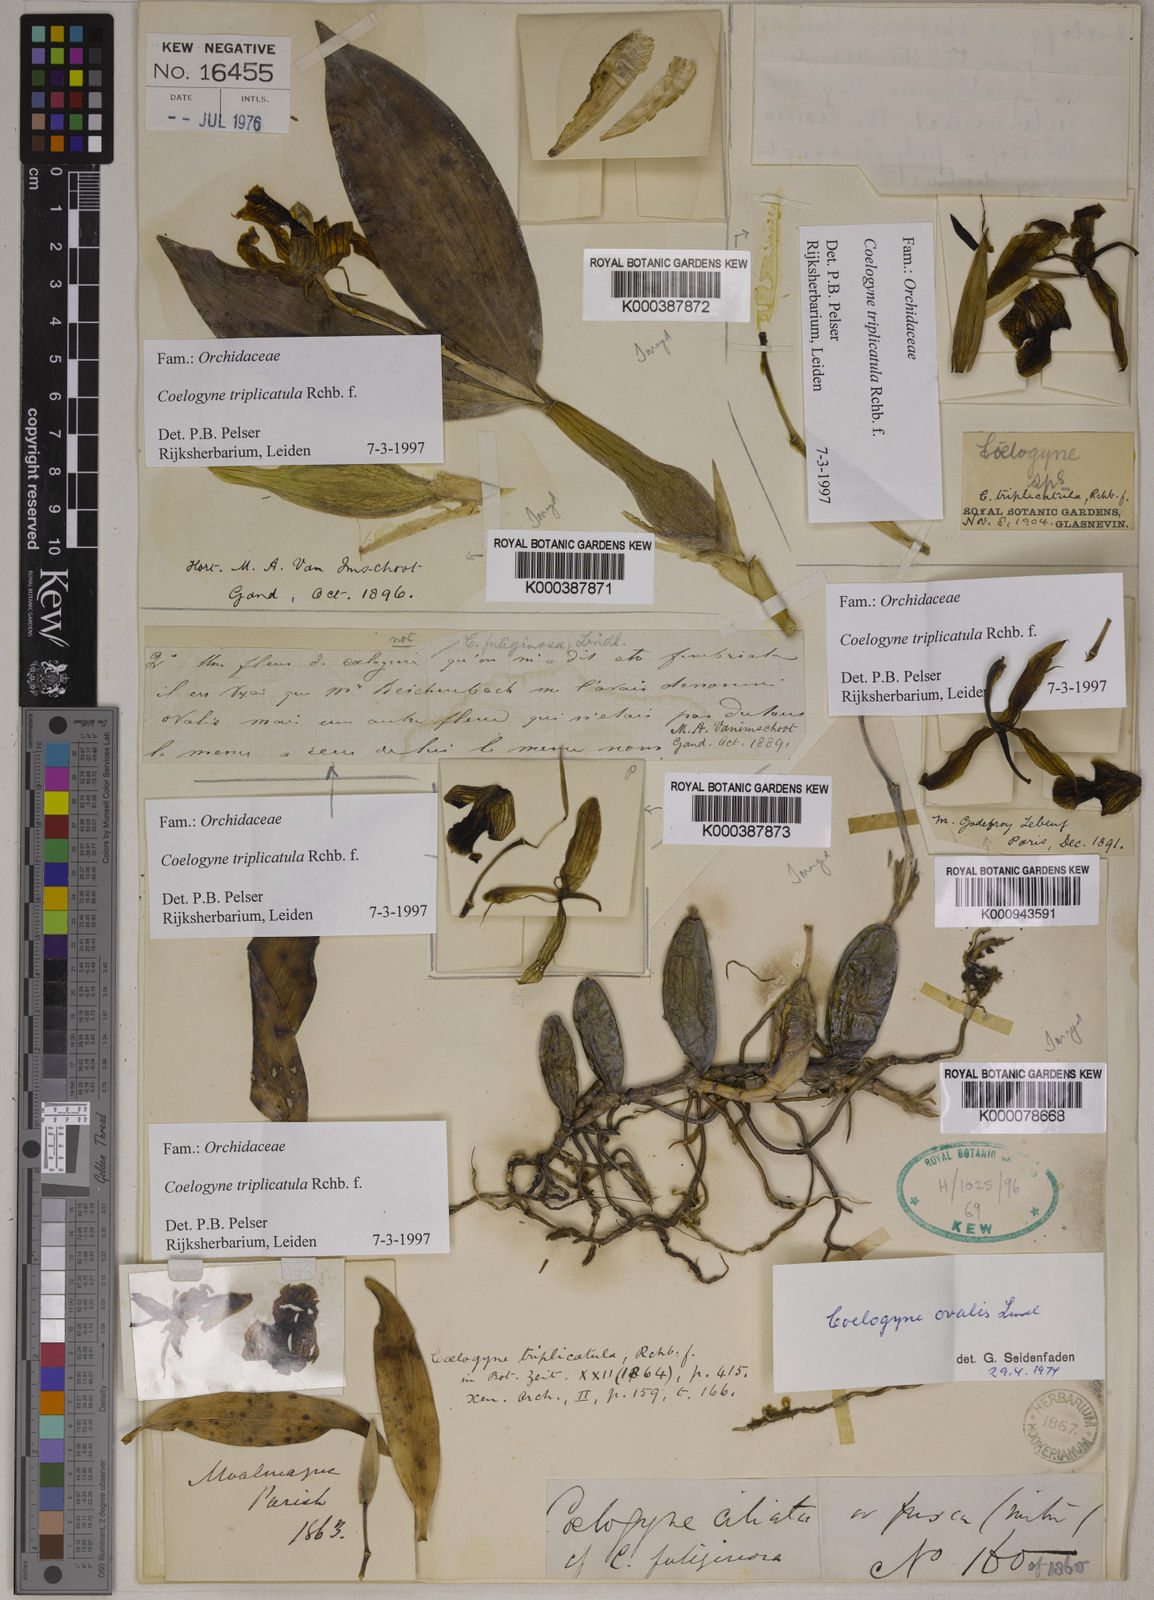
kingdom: Plantae
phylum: Tracheophyta
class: Liliopsida
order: Asparagales
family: Orchidaceae
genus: Coelogyne
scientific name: Coelogyne triplicatula
